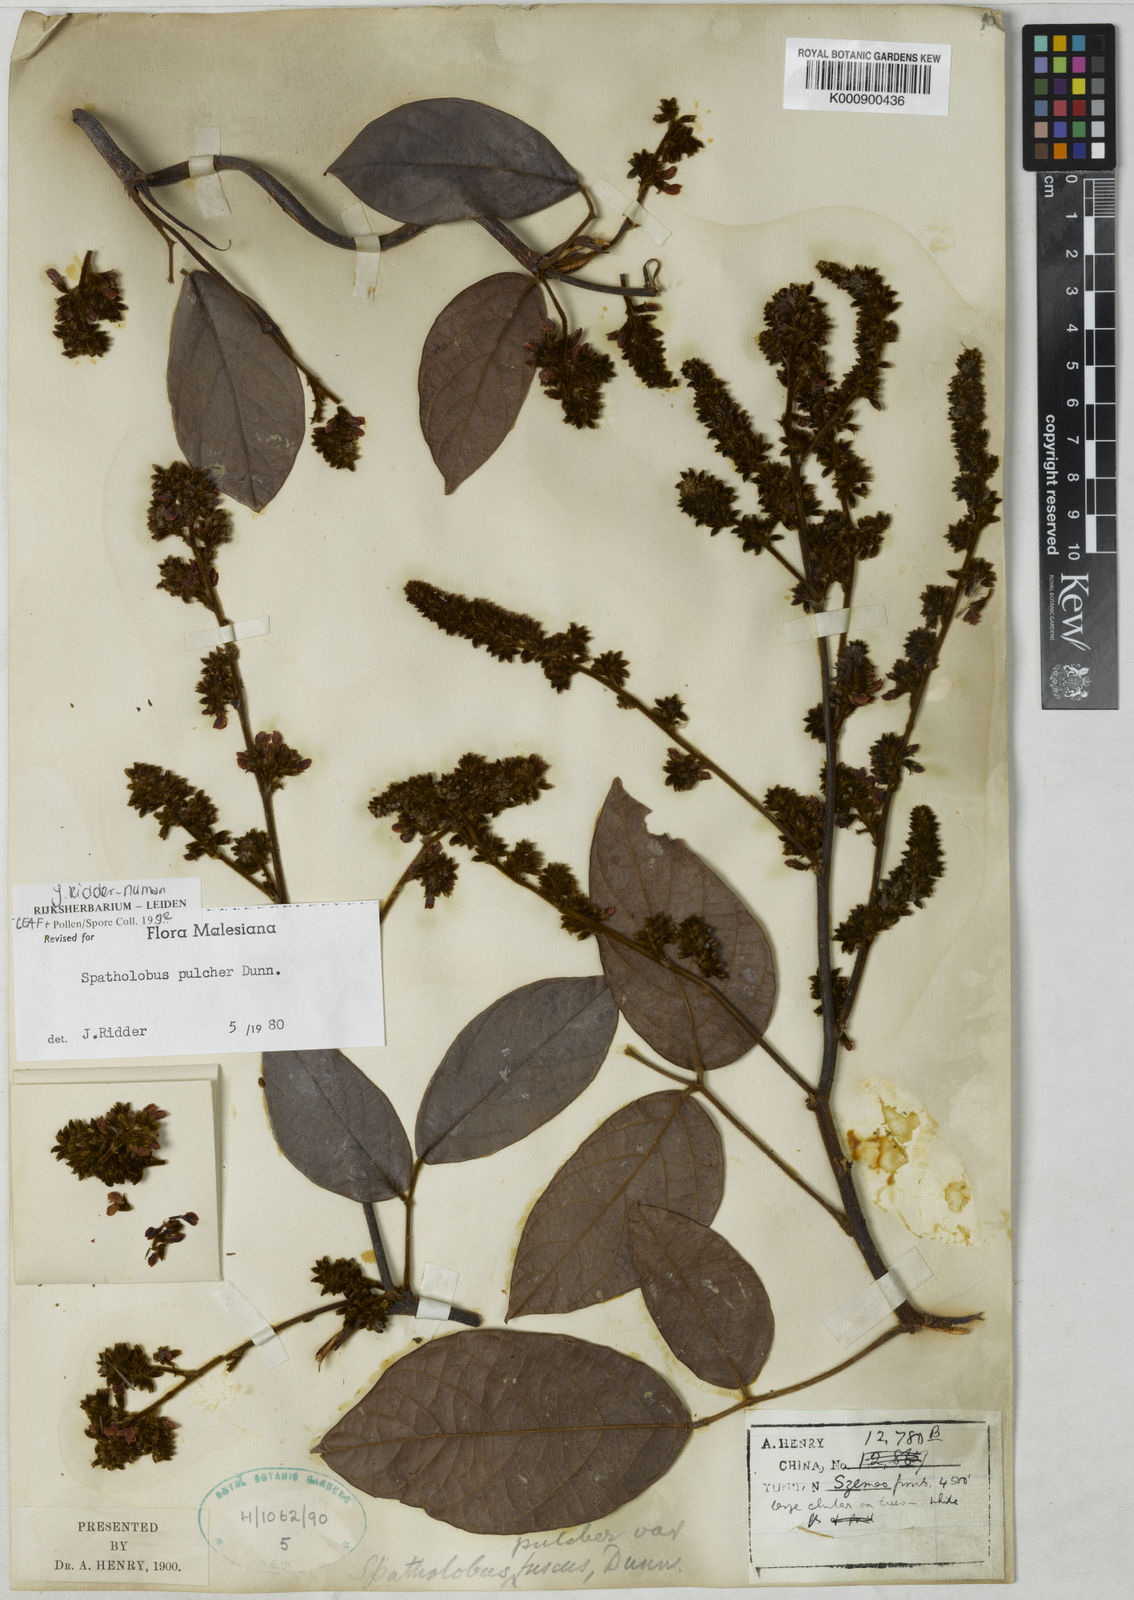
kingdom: Plantae
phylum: Tracheophyta
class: Magnoliopsida
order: Fabales
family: Fabaceae
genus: Spatholobus
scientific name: Spatholobus
